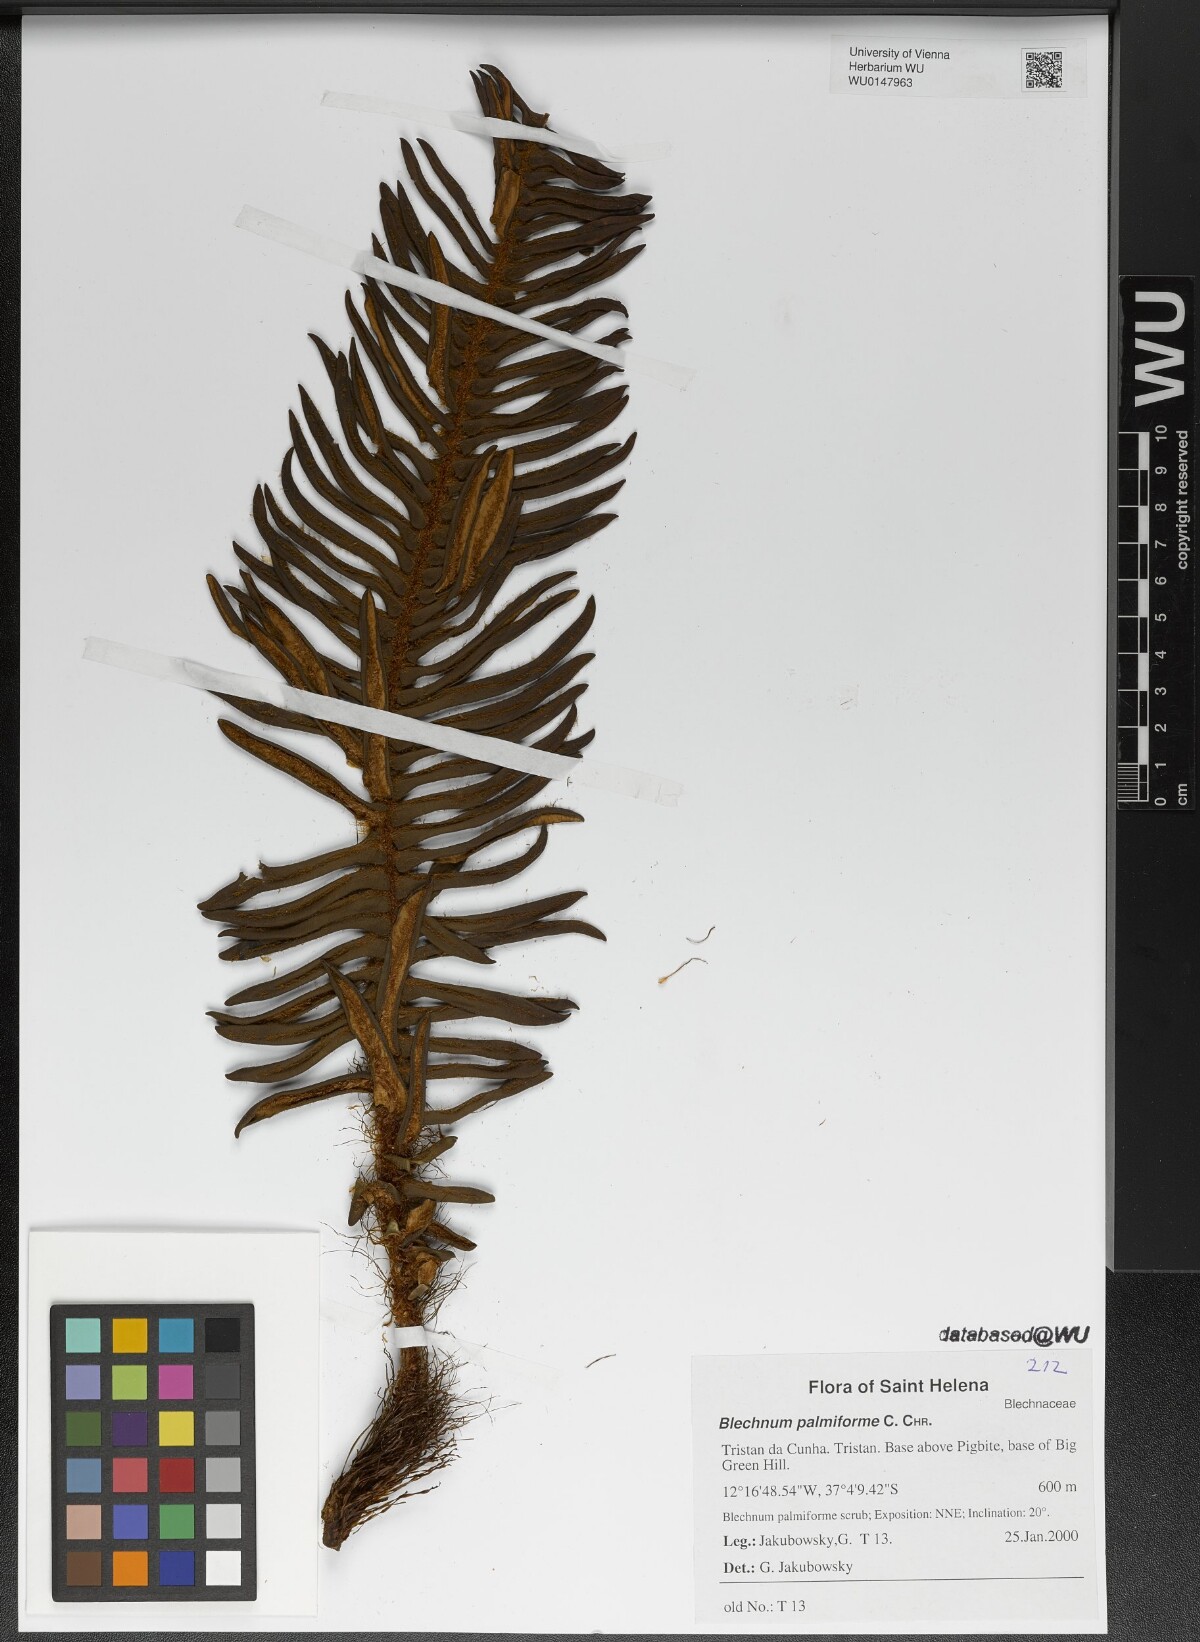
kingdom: Plantae
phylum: Tracheophyta
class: Polypodiopsida
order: Polypodiales
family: Blechnaceae
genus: Lomariocycas
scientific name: Lomariocycas palmiformis
